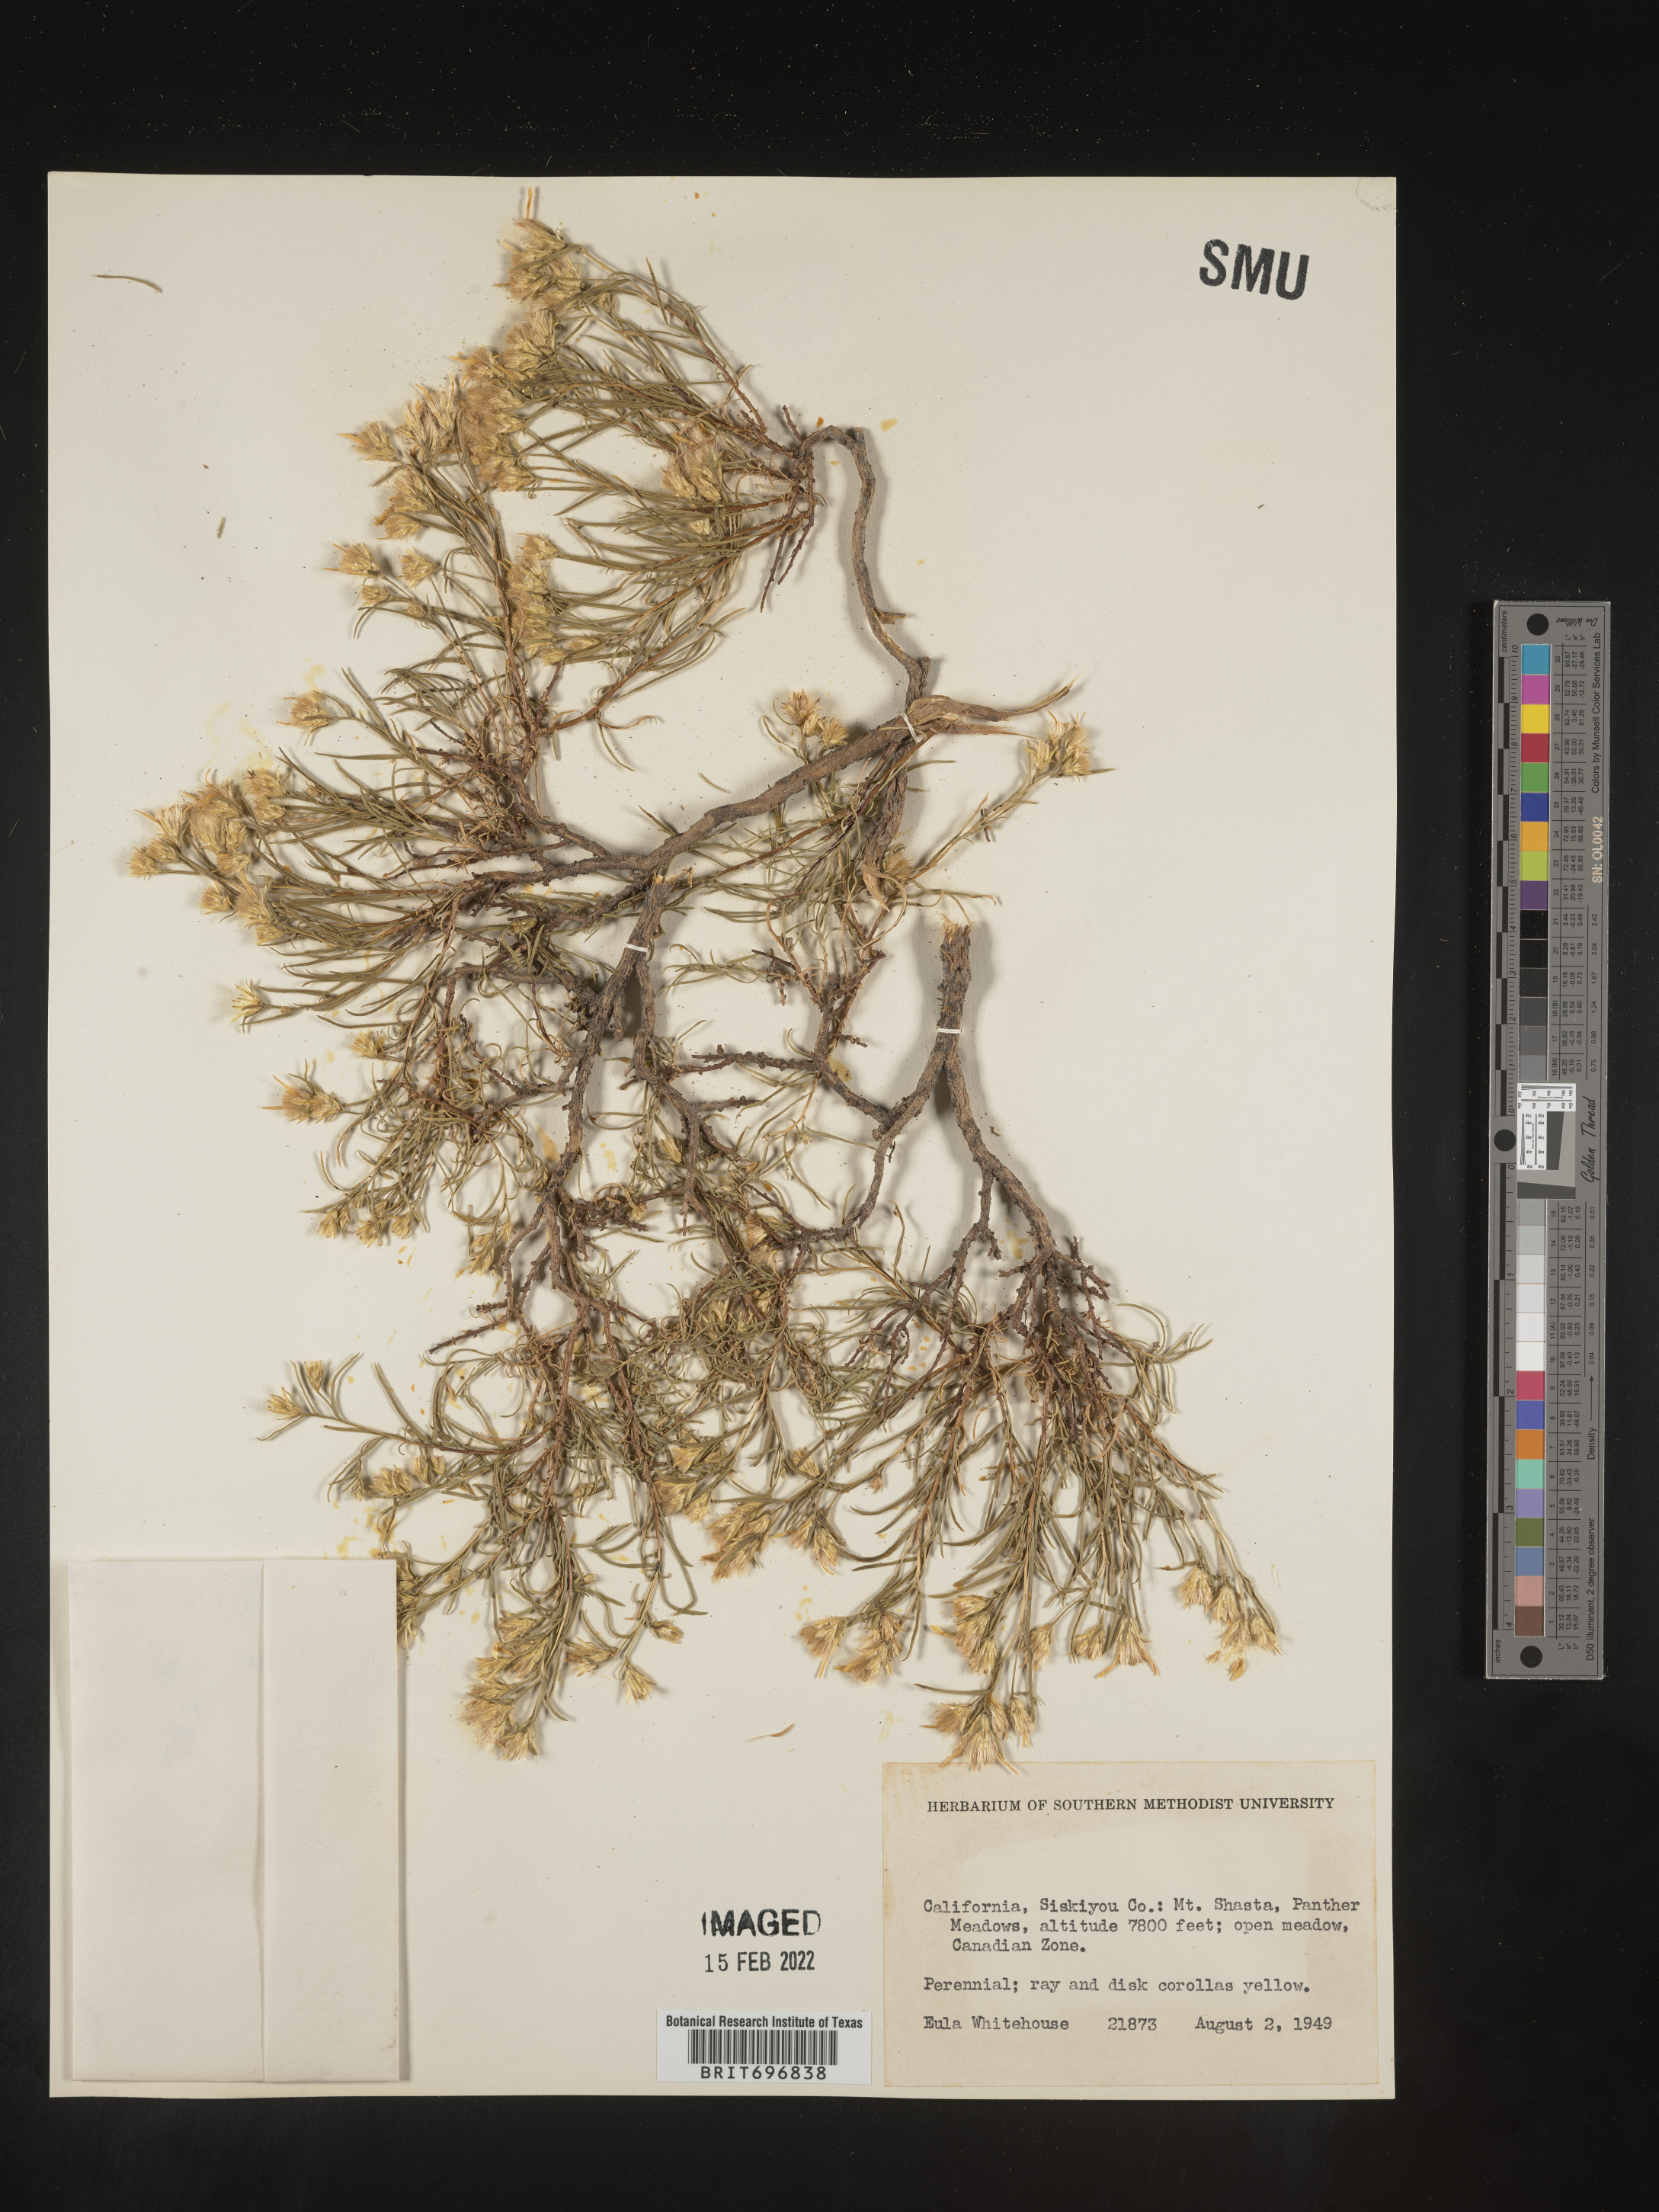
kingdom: Plantae
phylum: Tracheophyta
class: Magnoliopsida
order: Asterales
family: Asteraceae
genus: Ericameria
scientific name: Ericameria
